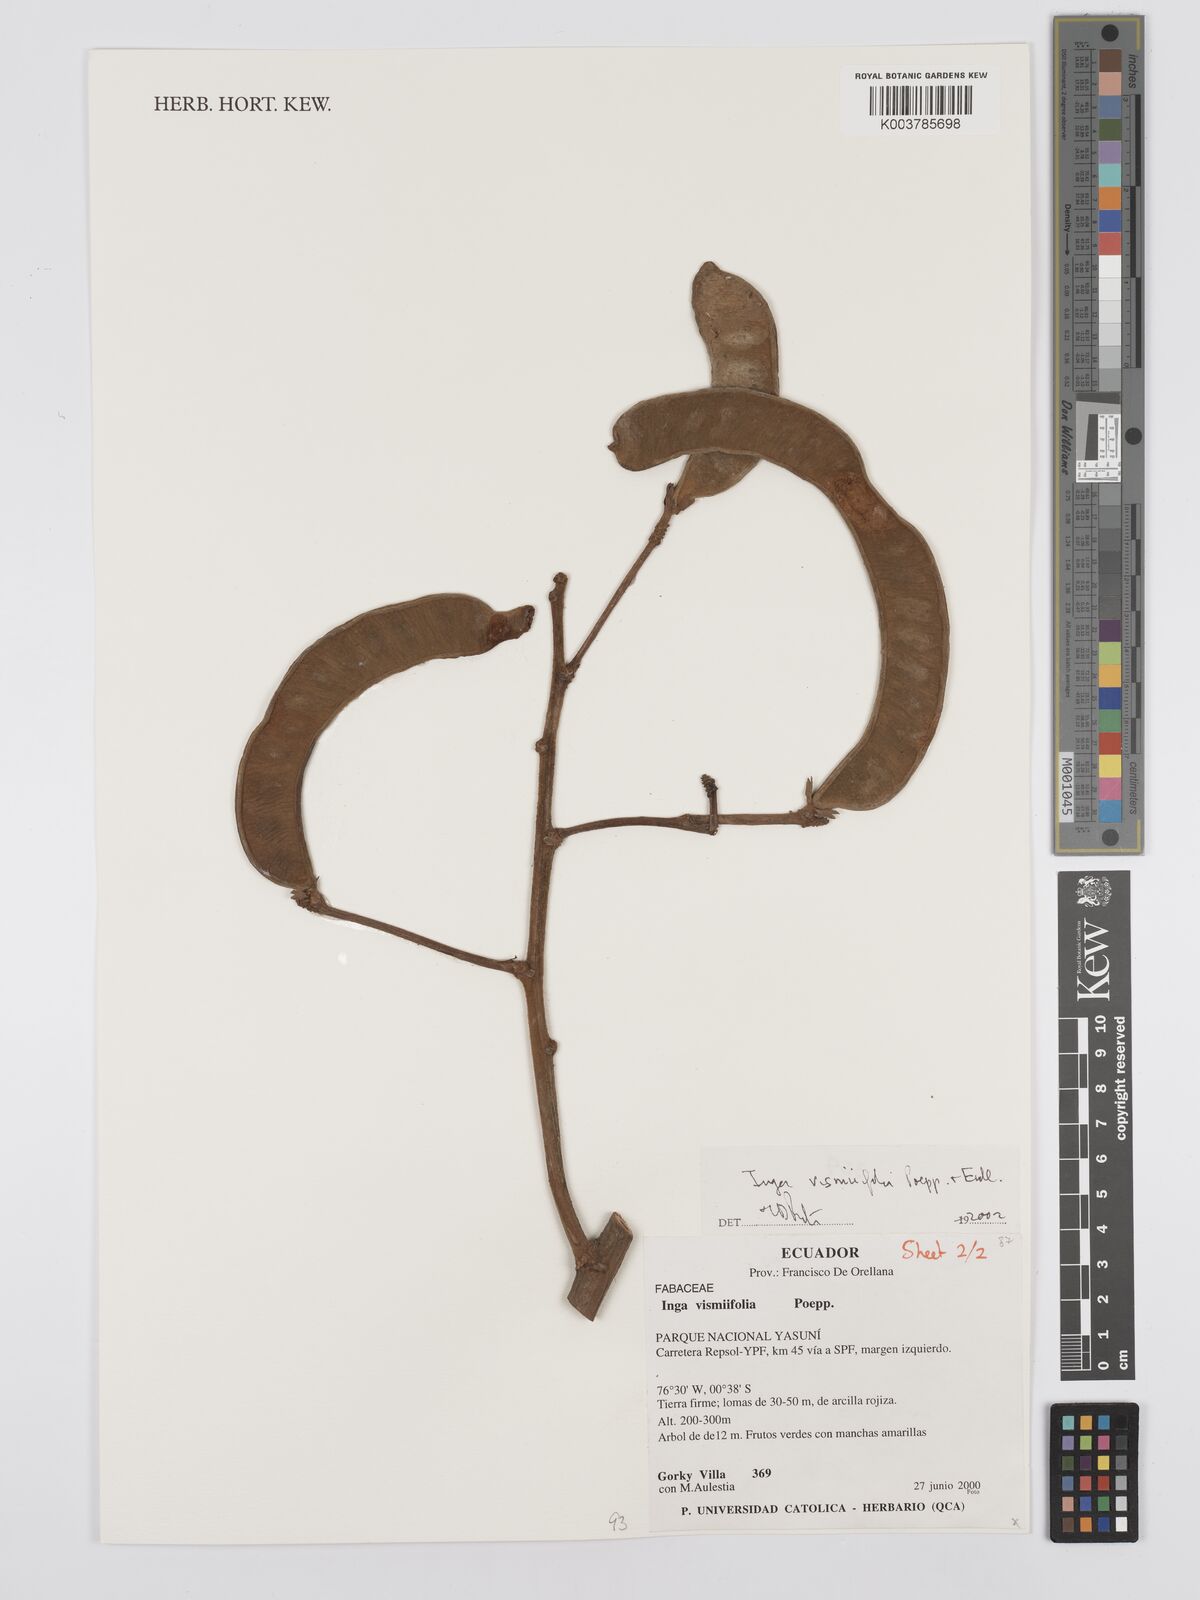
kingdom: Plantae
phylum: Tracheophyta
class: Magnoliopsida
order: Fabales
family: Fabaceae
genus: Inga
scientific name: Inga vismiifolia
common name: Howler monkey inga
